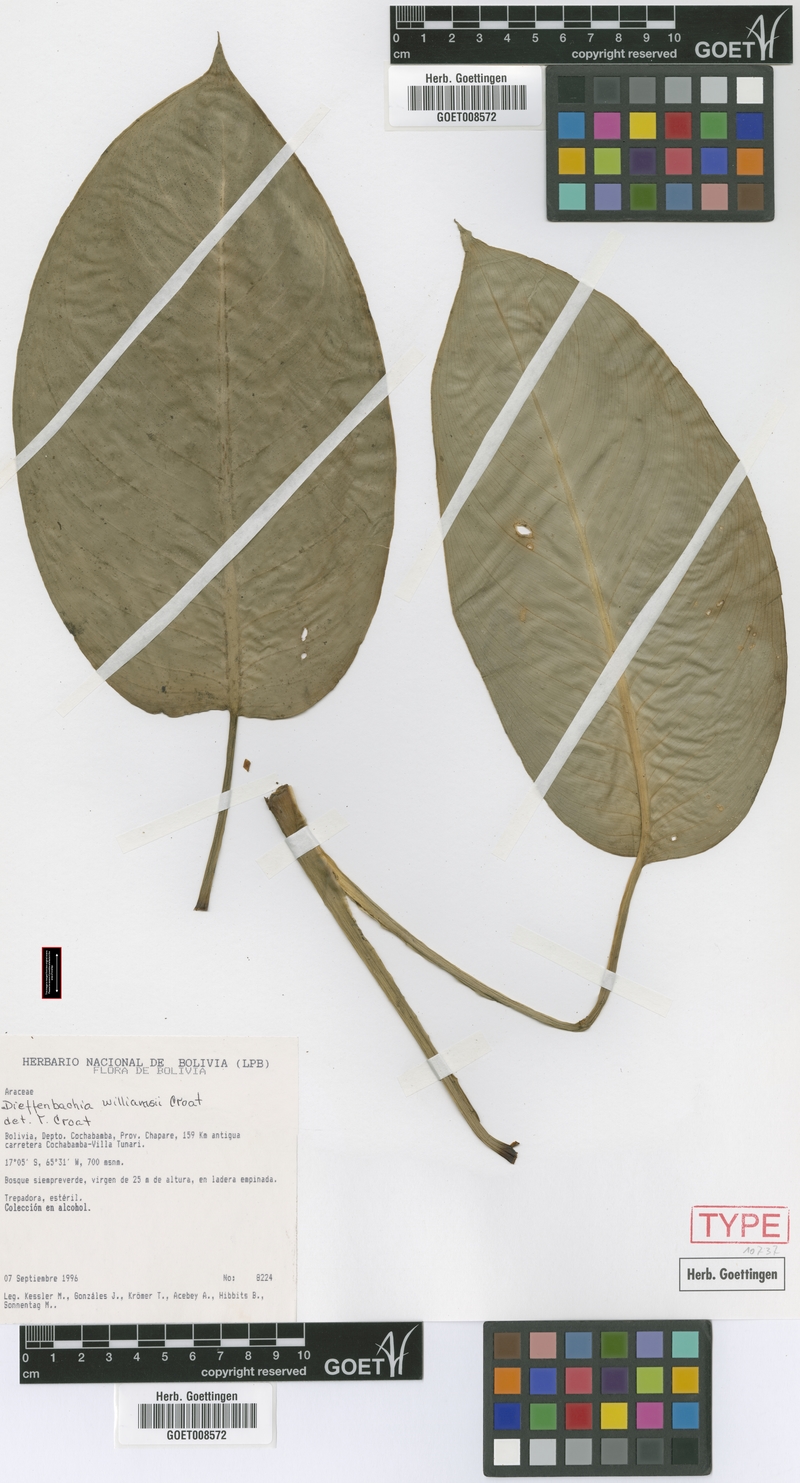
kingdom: Plantae
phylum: Tracheophyta
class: Liliopsida
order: Alismatales
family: Araceae
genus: Dieffenbachia
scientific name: Dieffenbachia williamsii
